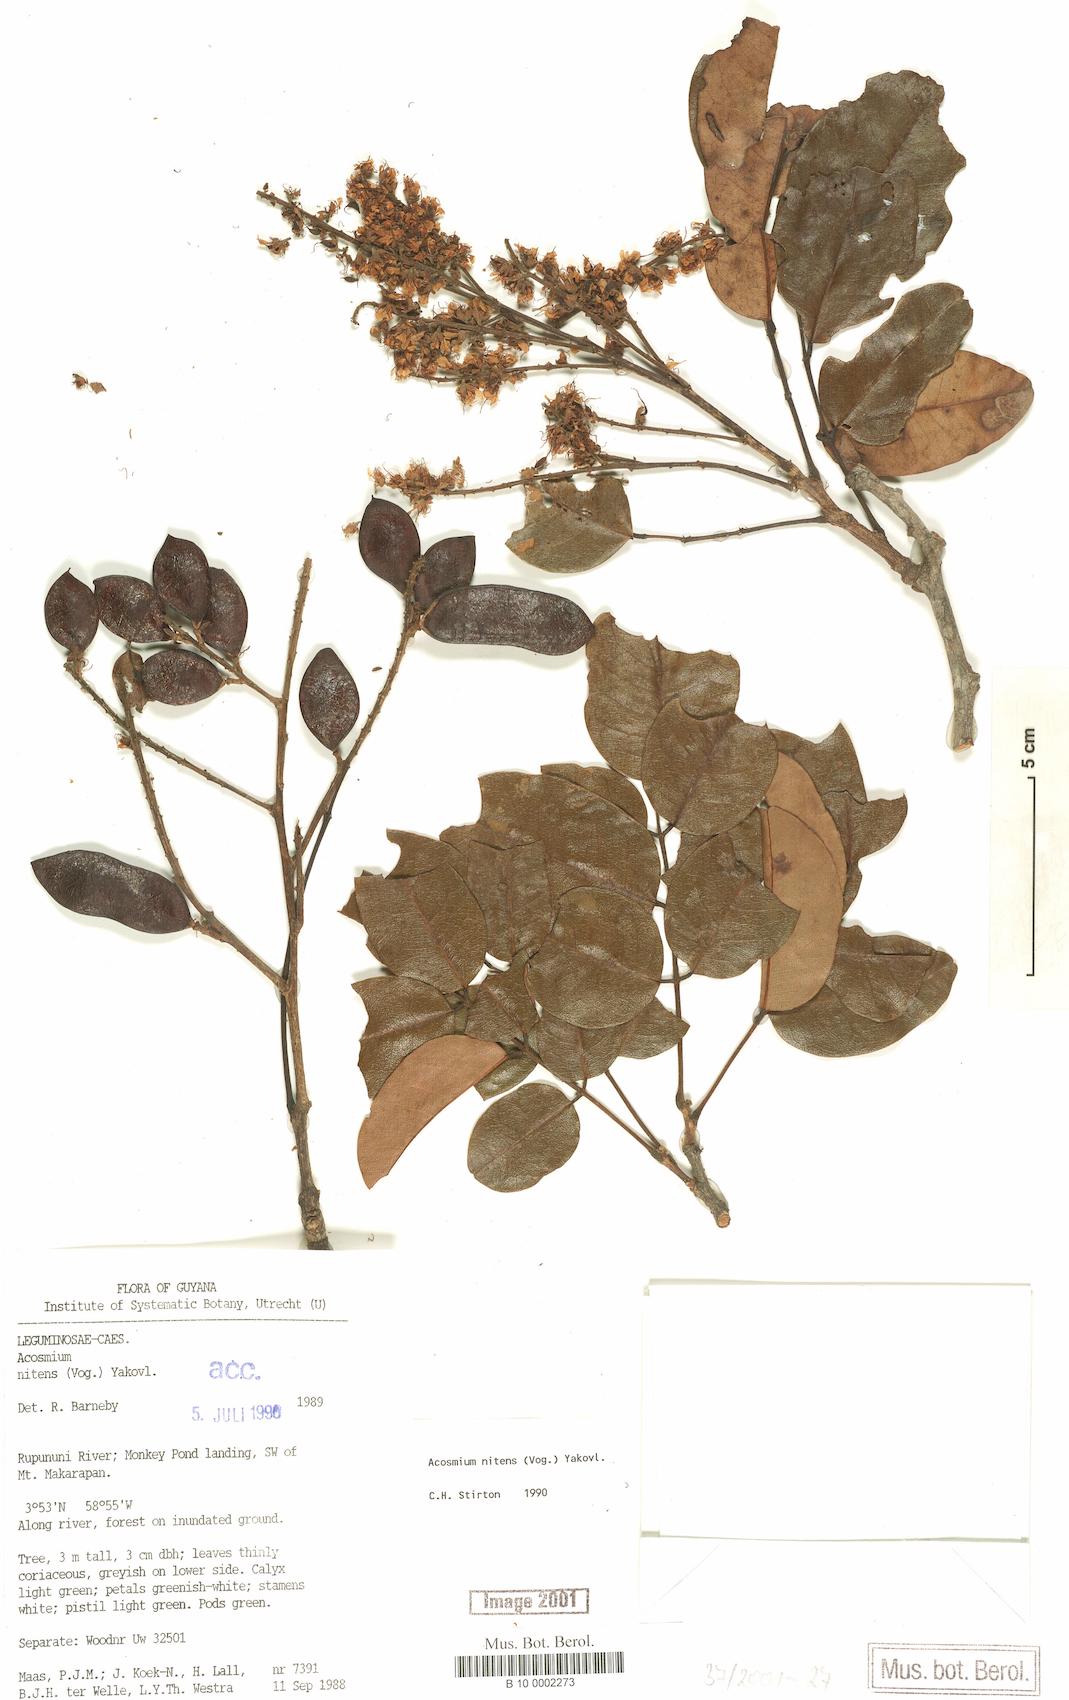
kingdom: Plantae
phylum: Tracheophyta
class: Magnoliopsida
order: Fabales
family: Fabaceae
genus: Leptolobium
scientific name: Leptolobium nitens
